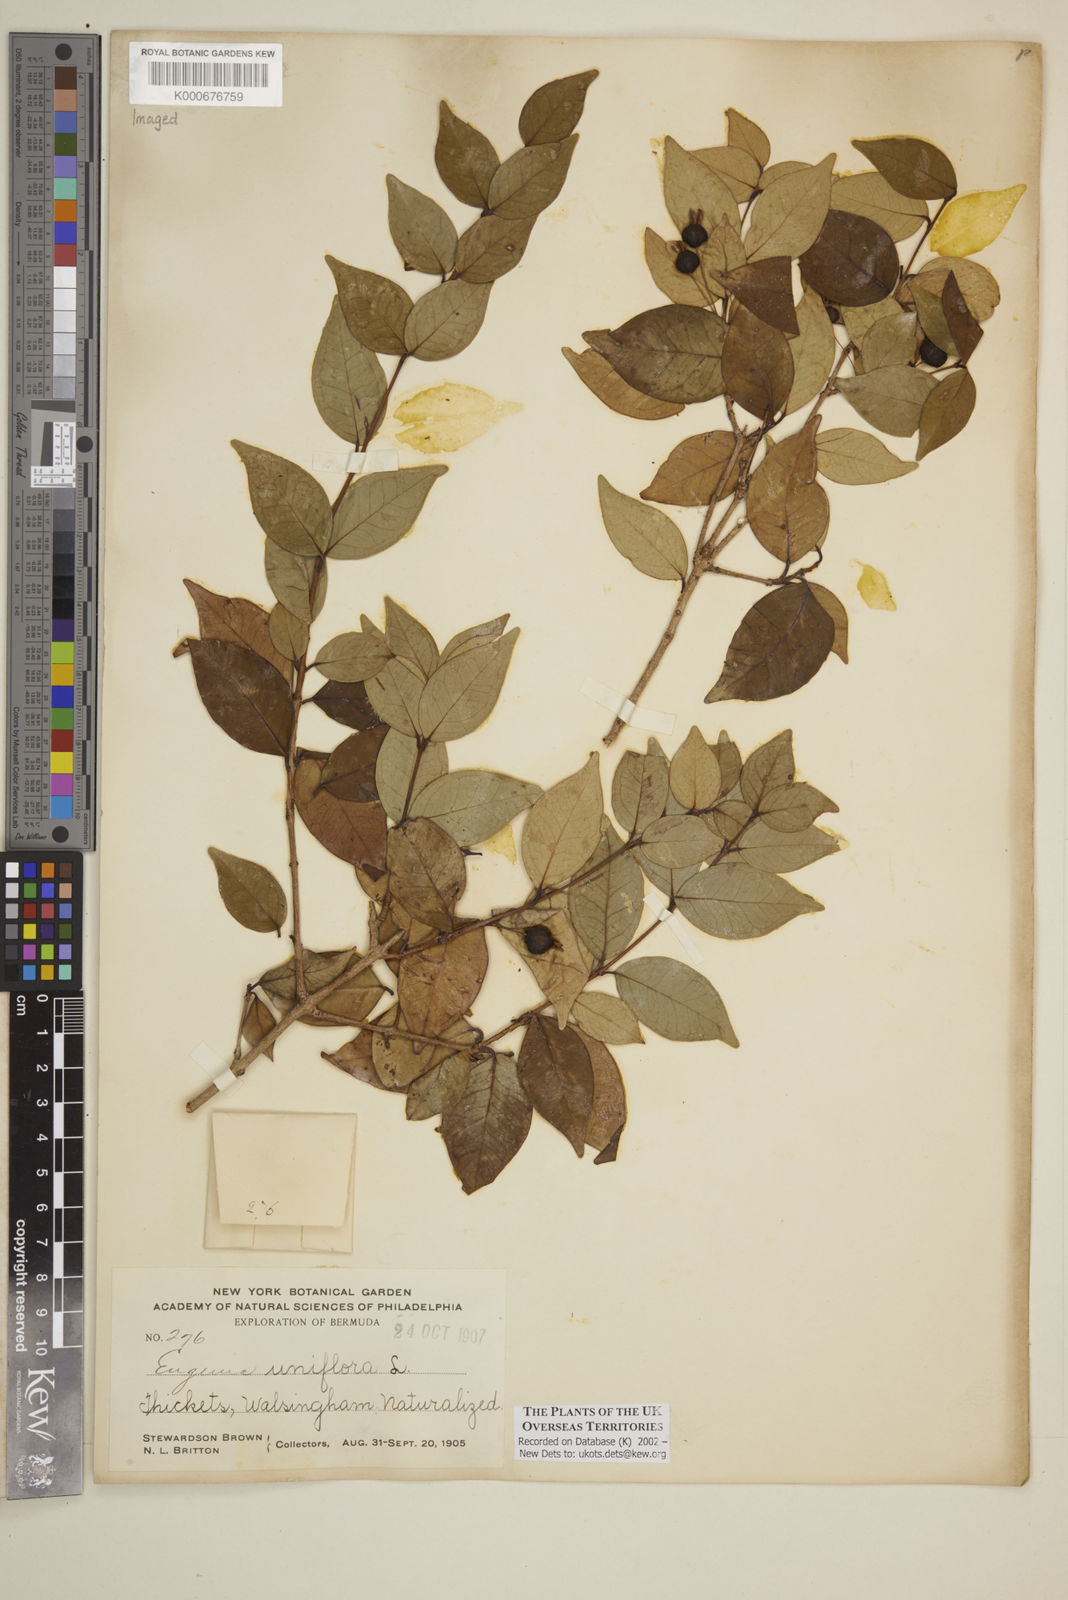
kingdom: Plantae
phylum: Tracheophyta
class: Magnoliopsida
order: Myrtales
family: Myrtaceae
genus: Eugenia
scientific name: Eugenia uniflora
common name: Surinam cherry
